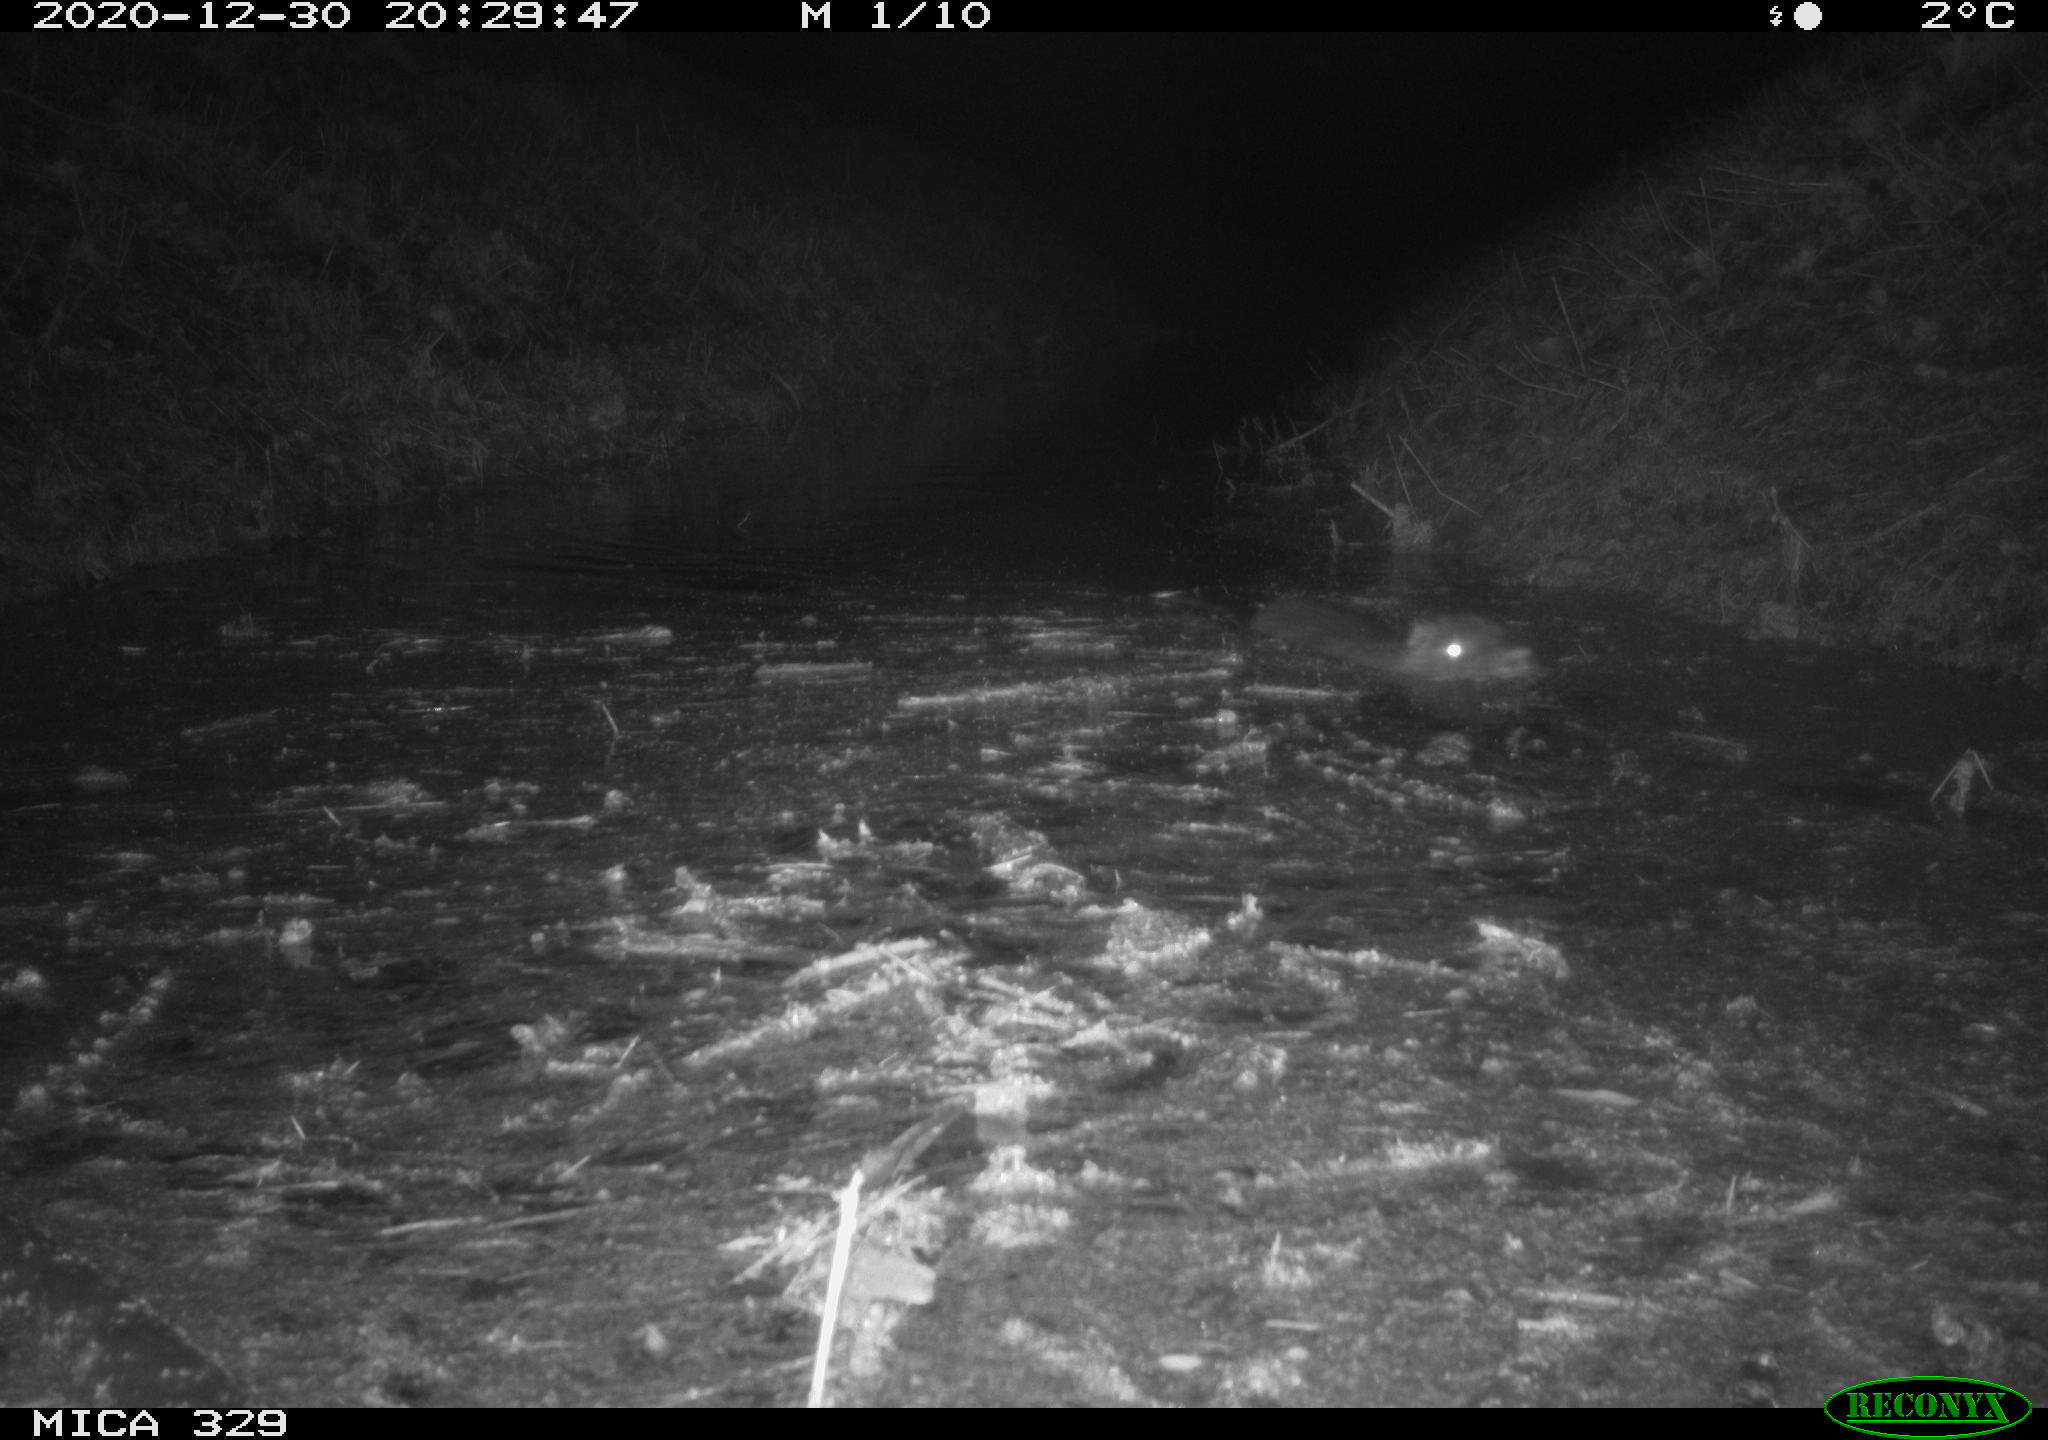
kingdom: Animalia
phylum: Chordata
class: Mammalia
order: Rodentia
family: Myocastoridae
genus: Myocastor
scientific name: Myocastor coypus
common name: Coypu
